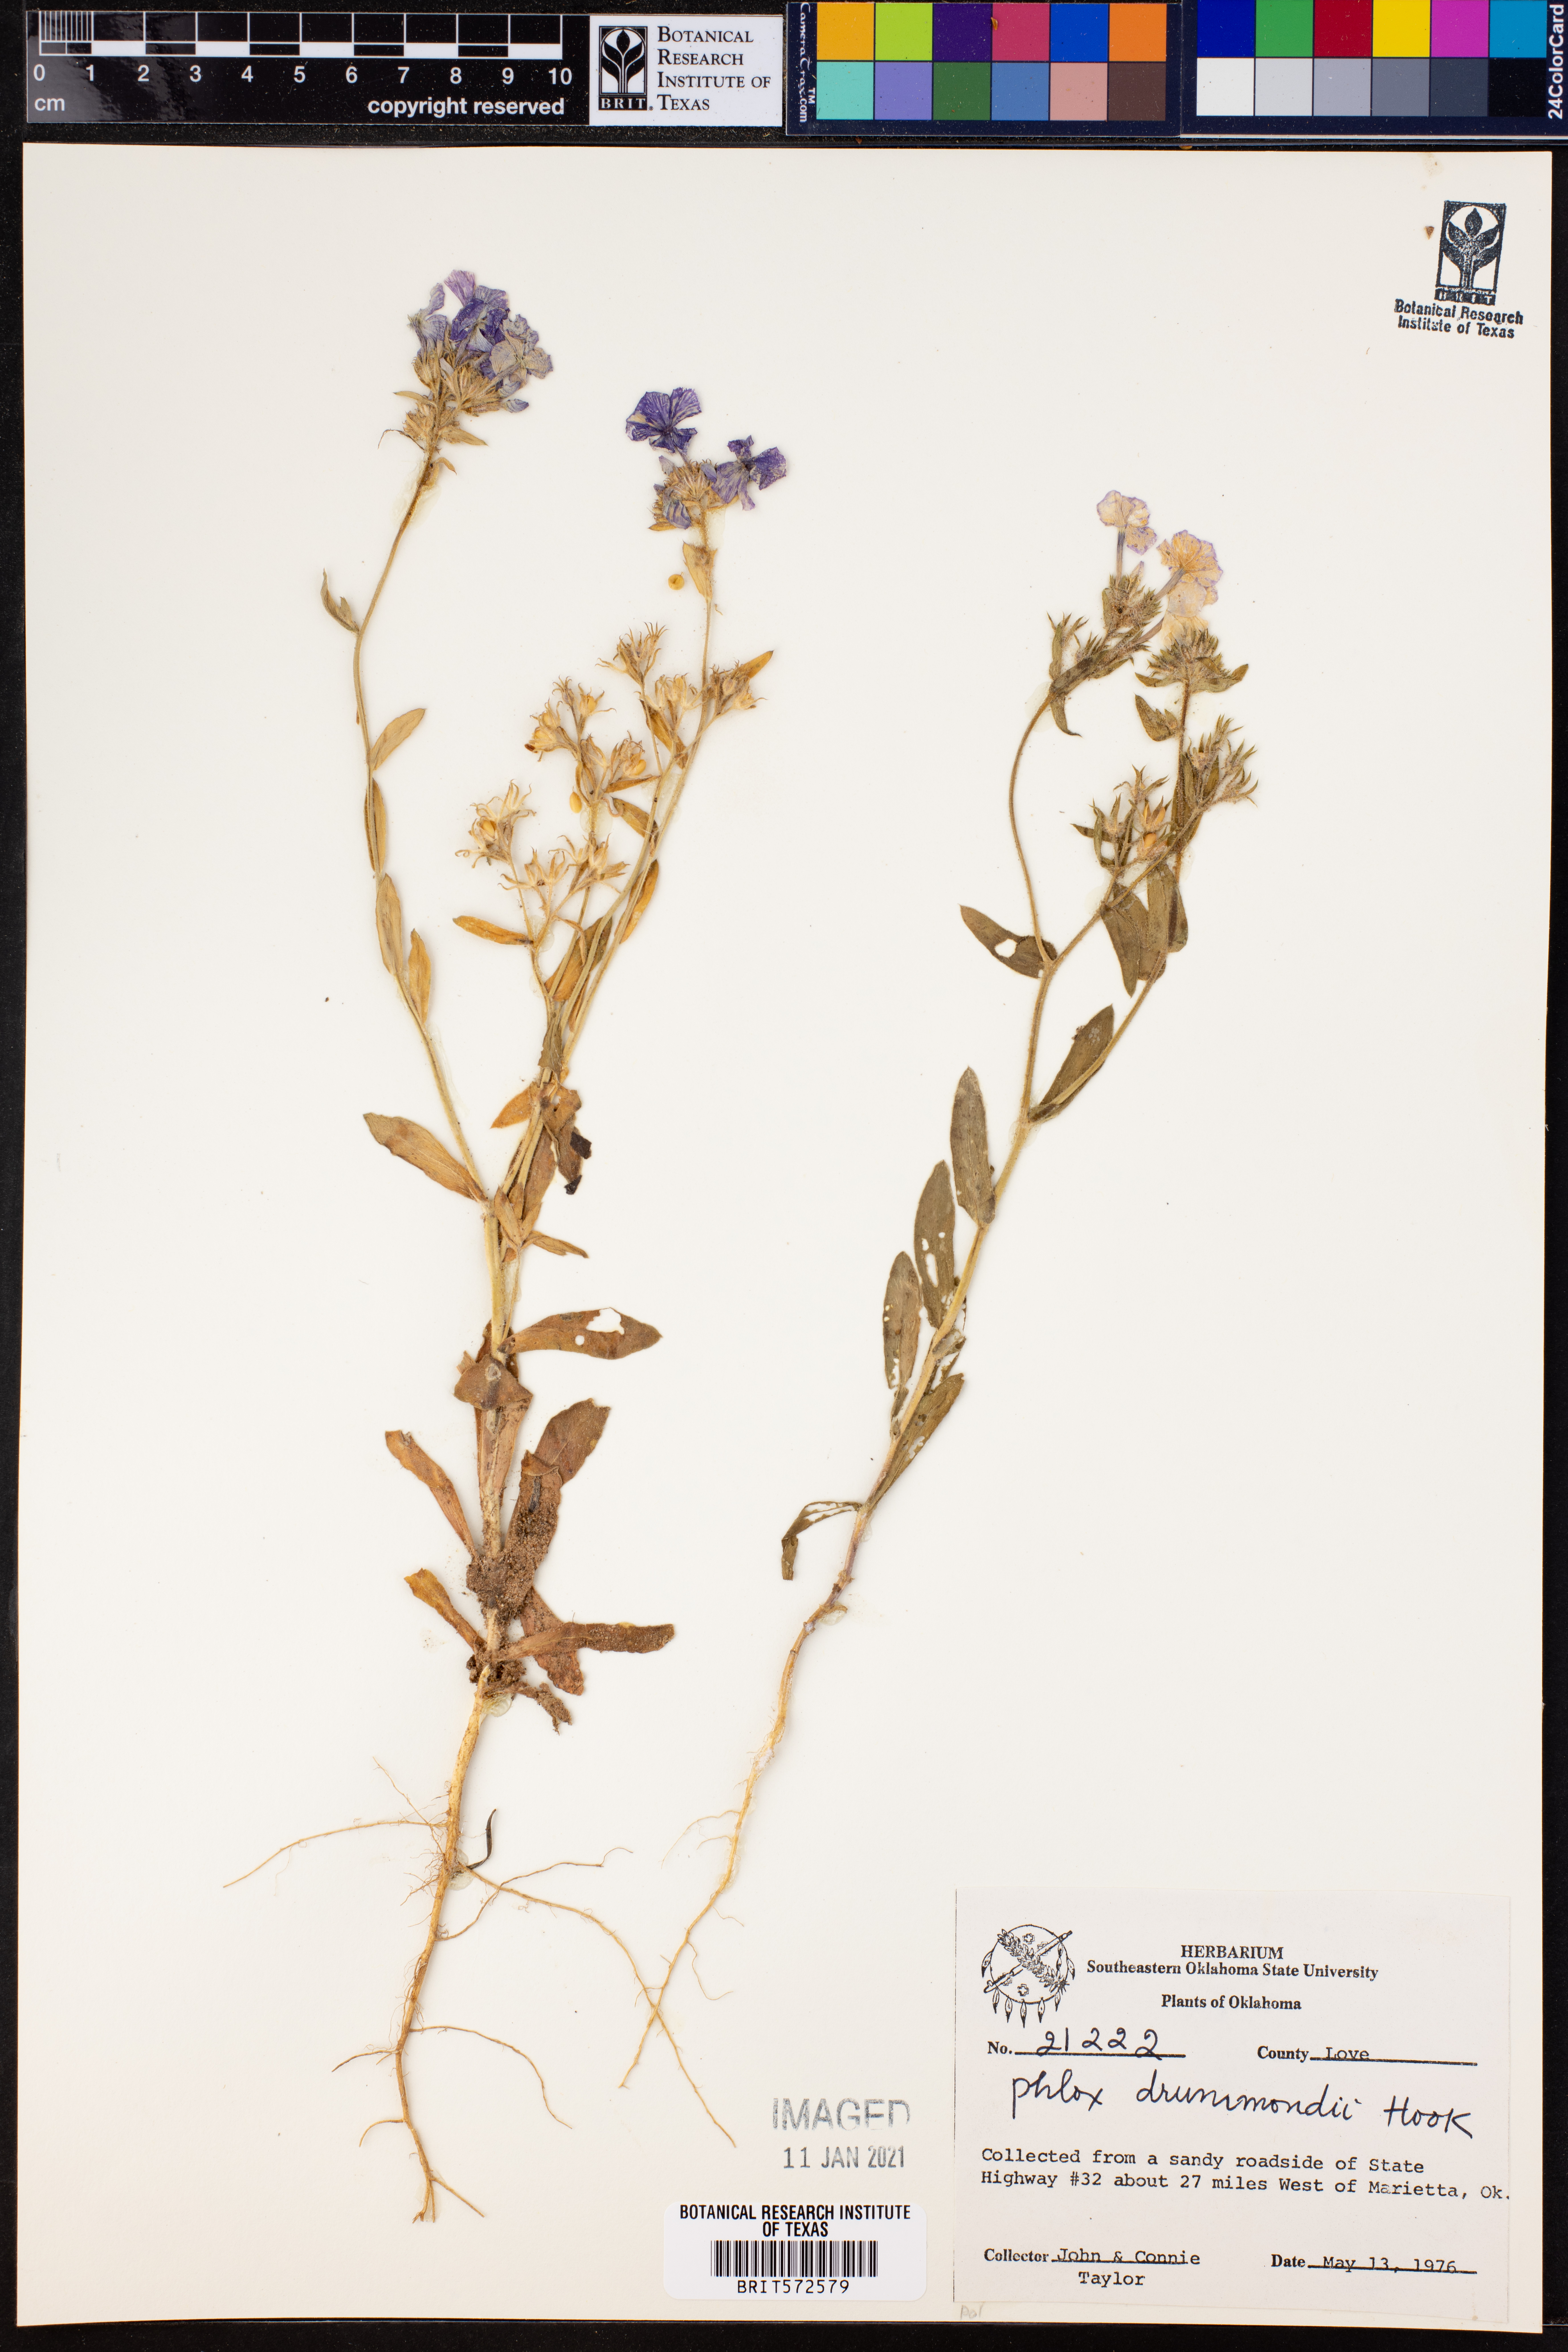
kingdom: Plantae
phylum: Tracheophyta
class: Magnoliopsida
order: Ericales
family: Polemoniaceae
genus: Phlox
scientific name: Phlox drummondii
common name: Drummond's phlox
